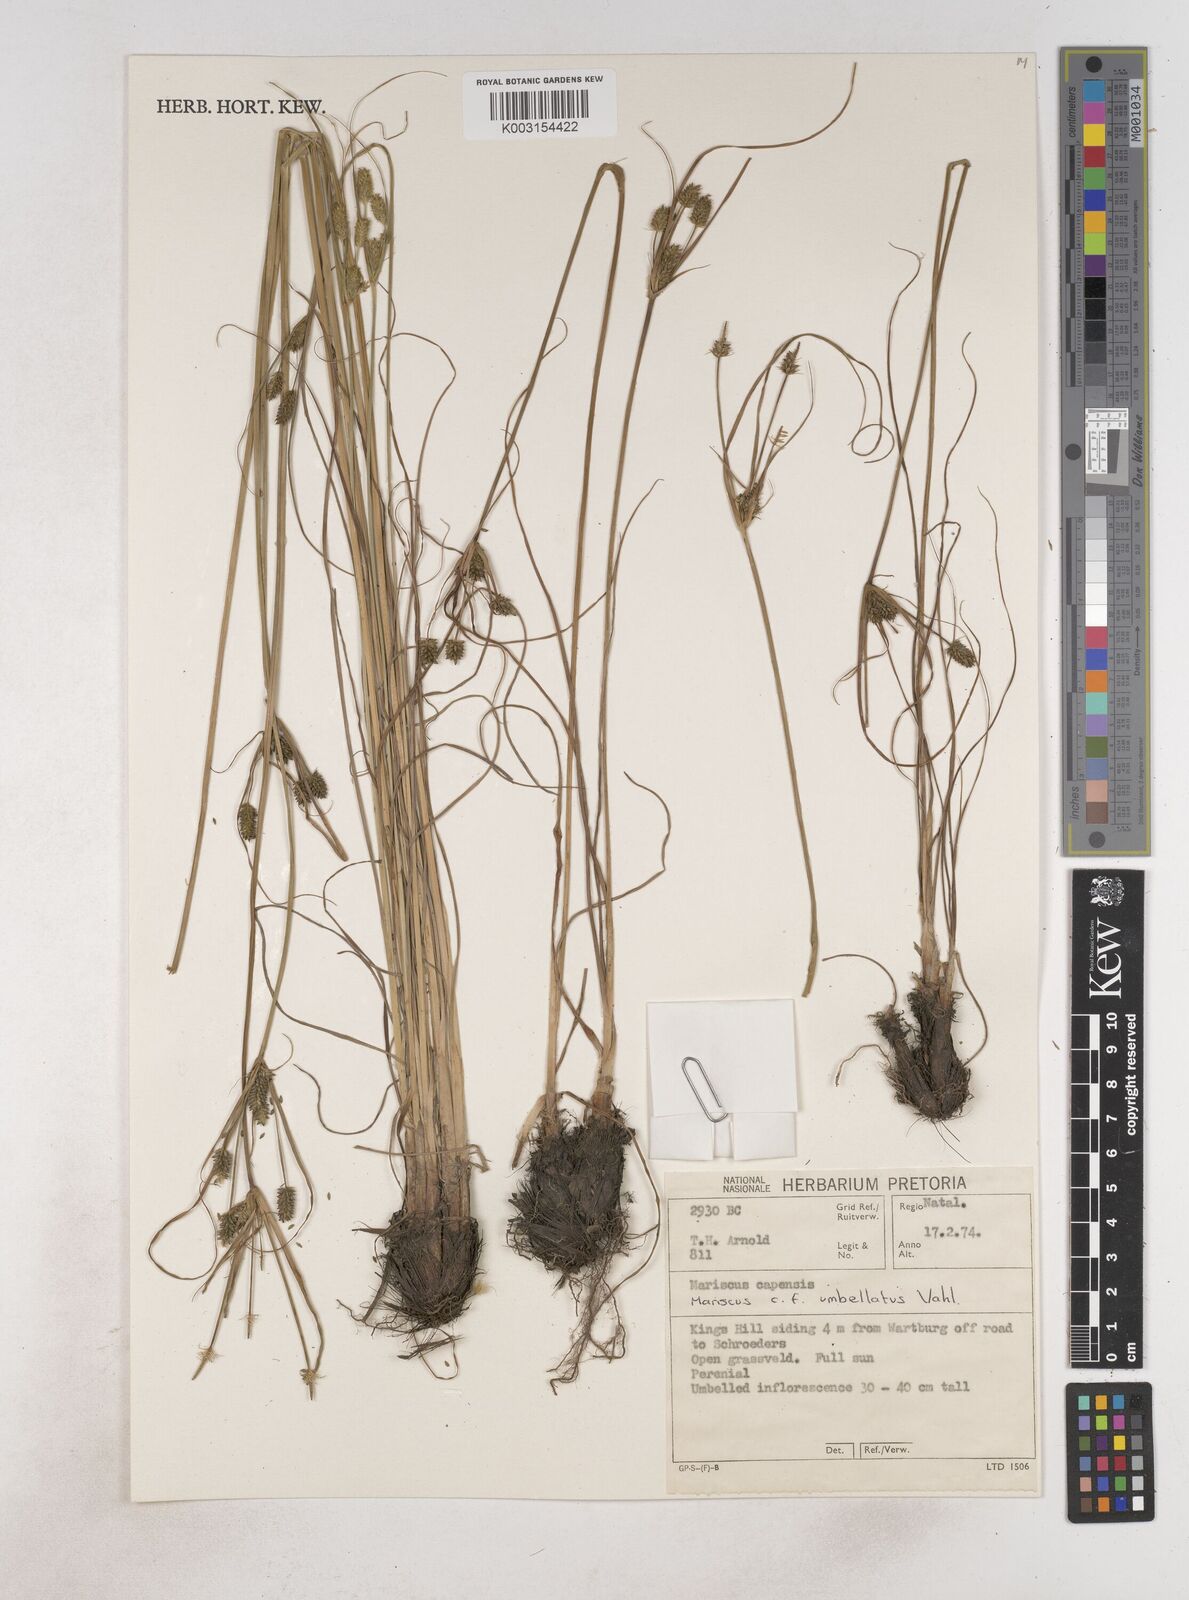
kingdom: Plantae
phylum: Tracheophyta
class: Liliopsida
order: Poales
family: Cyperaceae
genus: Cyperus
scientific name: Cyperus
